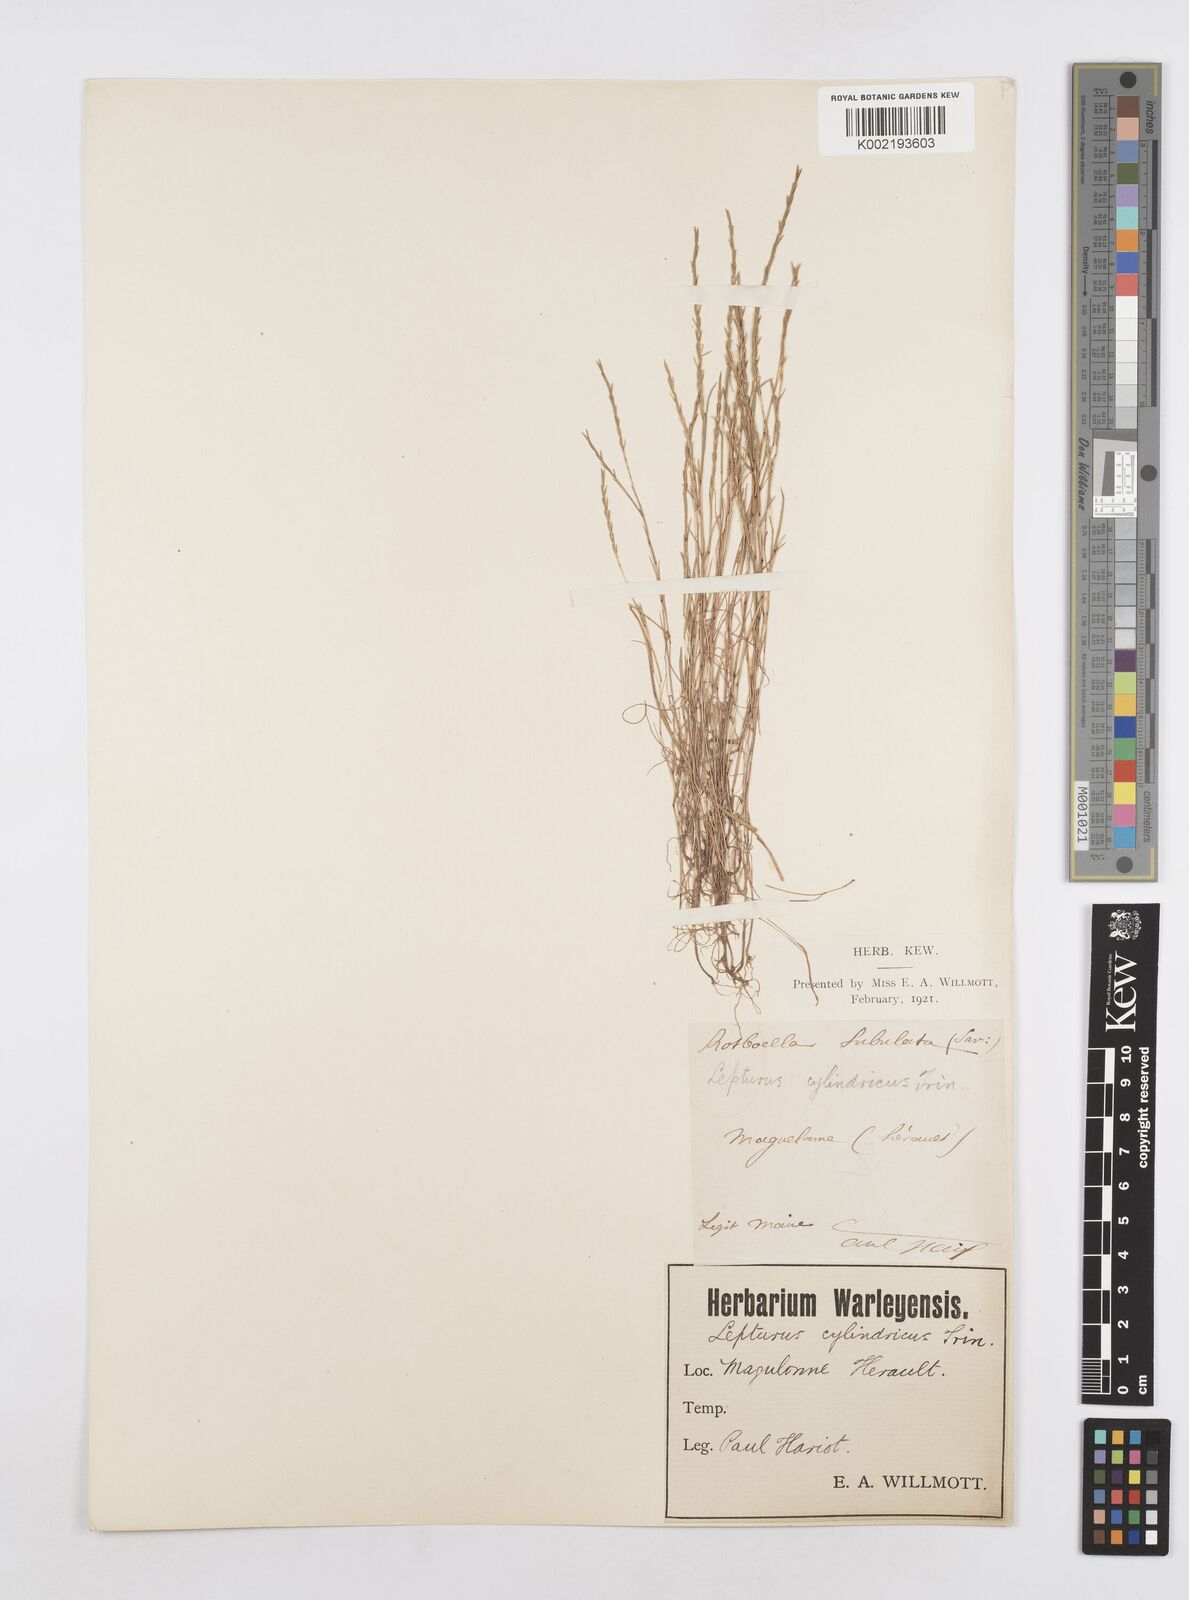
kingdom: Plantae
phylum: Tracheophyta
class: Liliopsida
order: Poales
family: Poaceae
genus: Parapholis
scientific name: Parapholis filiformis
